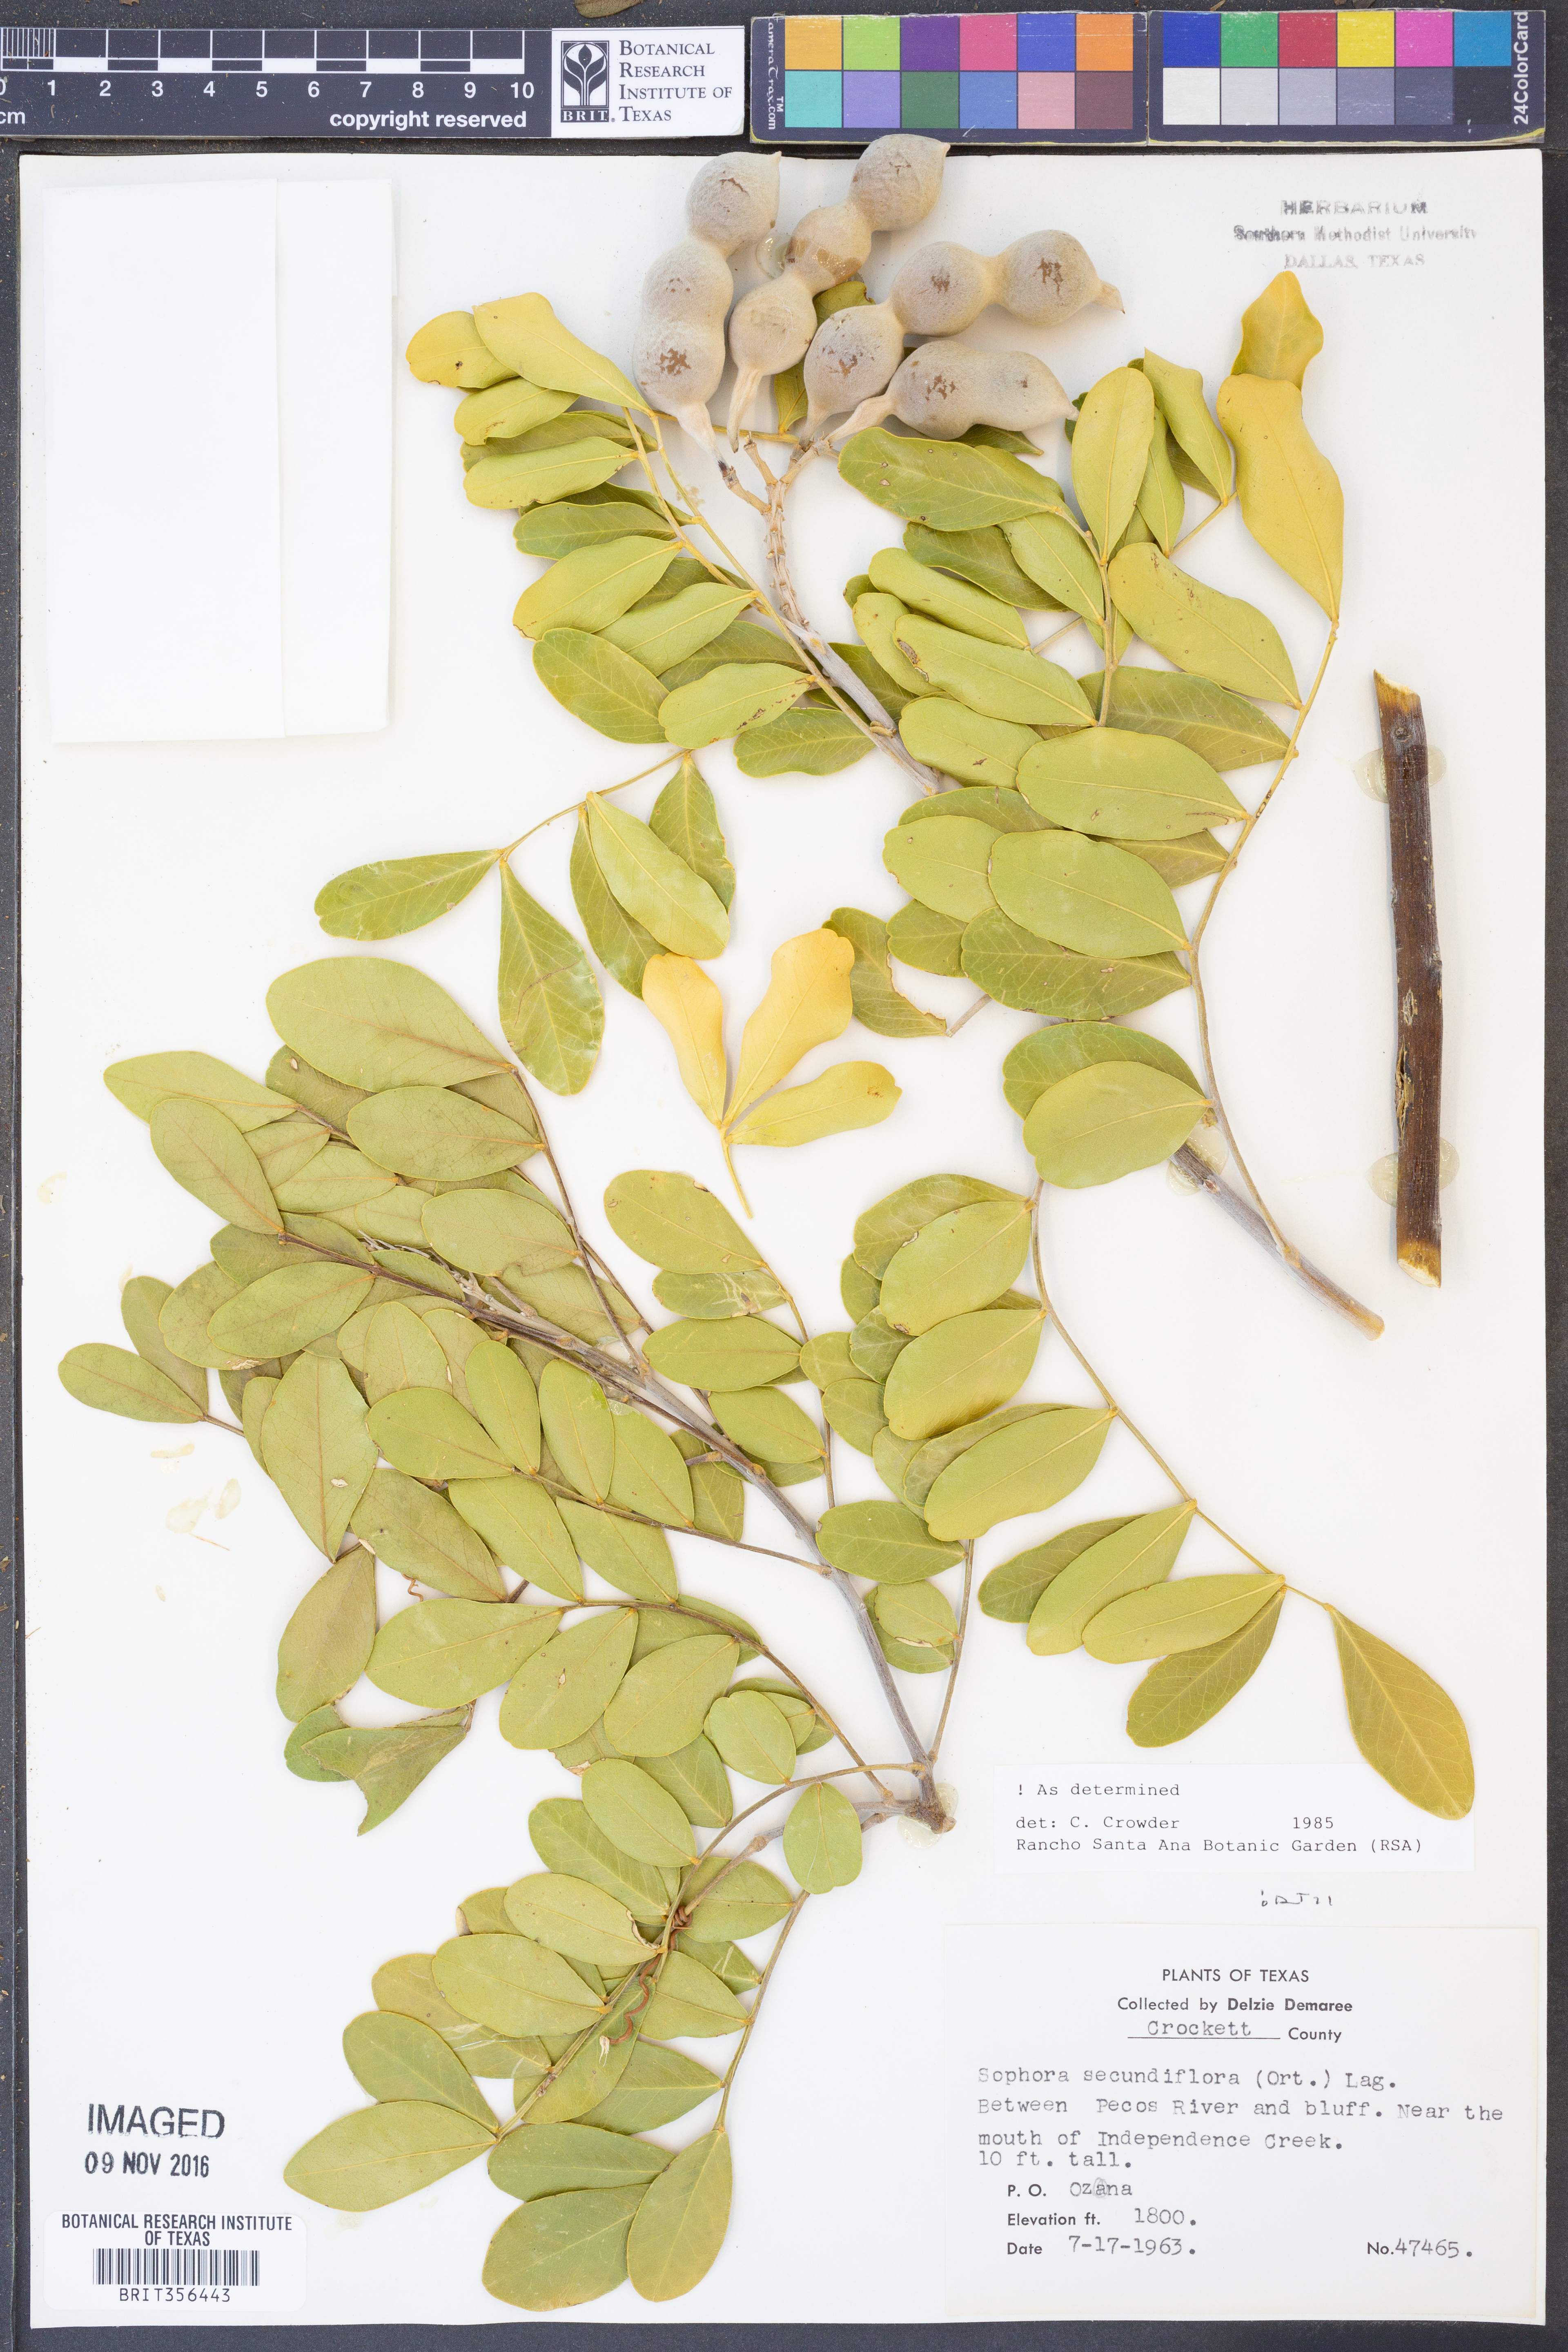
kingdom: Plantae
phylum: Tracheophyta
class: Magnoliopsida
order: Fabales
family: Fabaceae
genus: Dermatophyllum
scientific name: Dermatophyllum secundiflorum
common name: Texas-mountain-laurel
